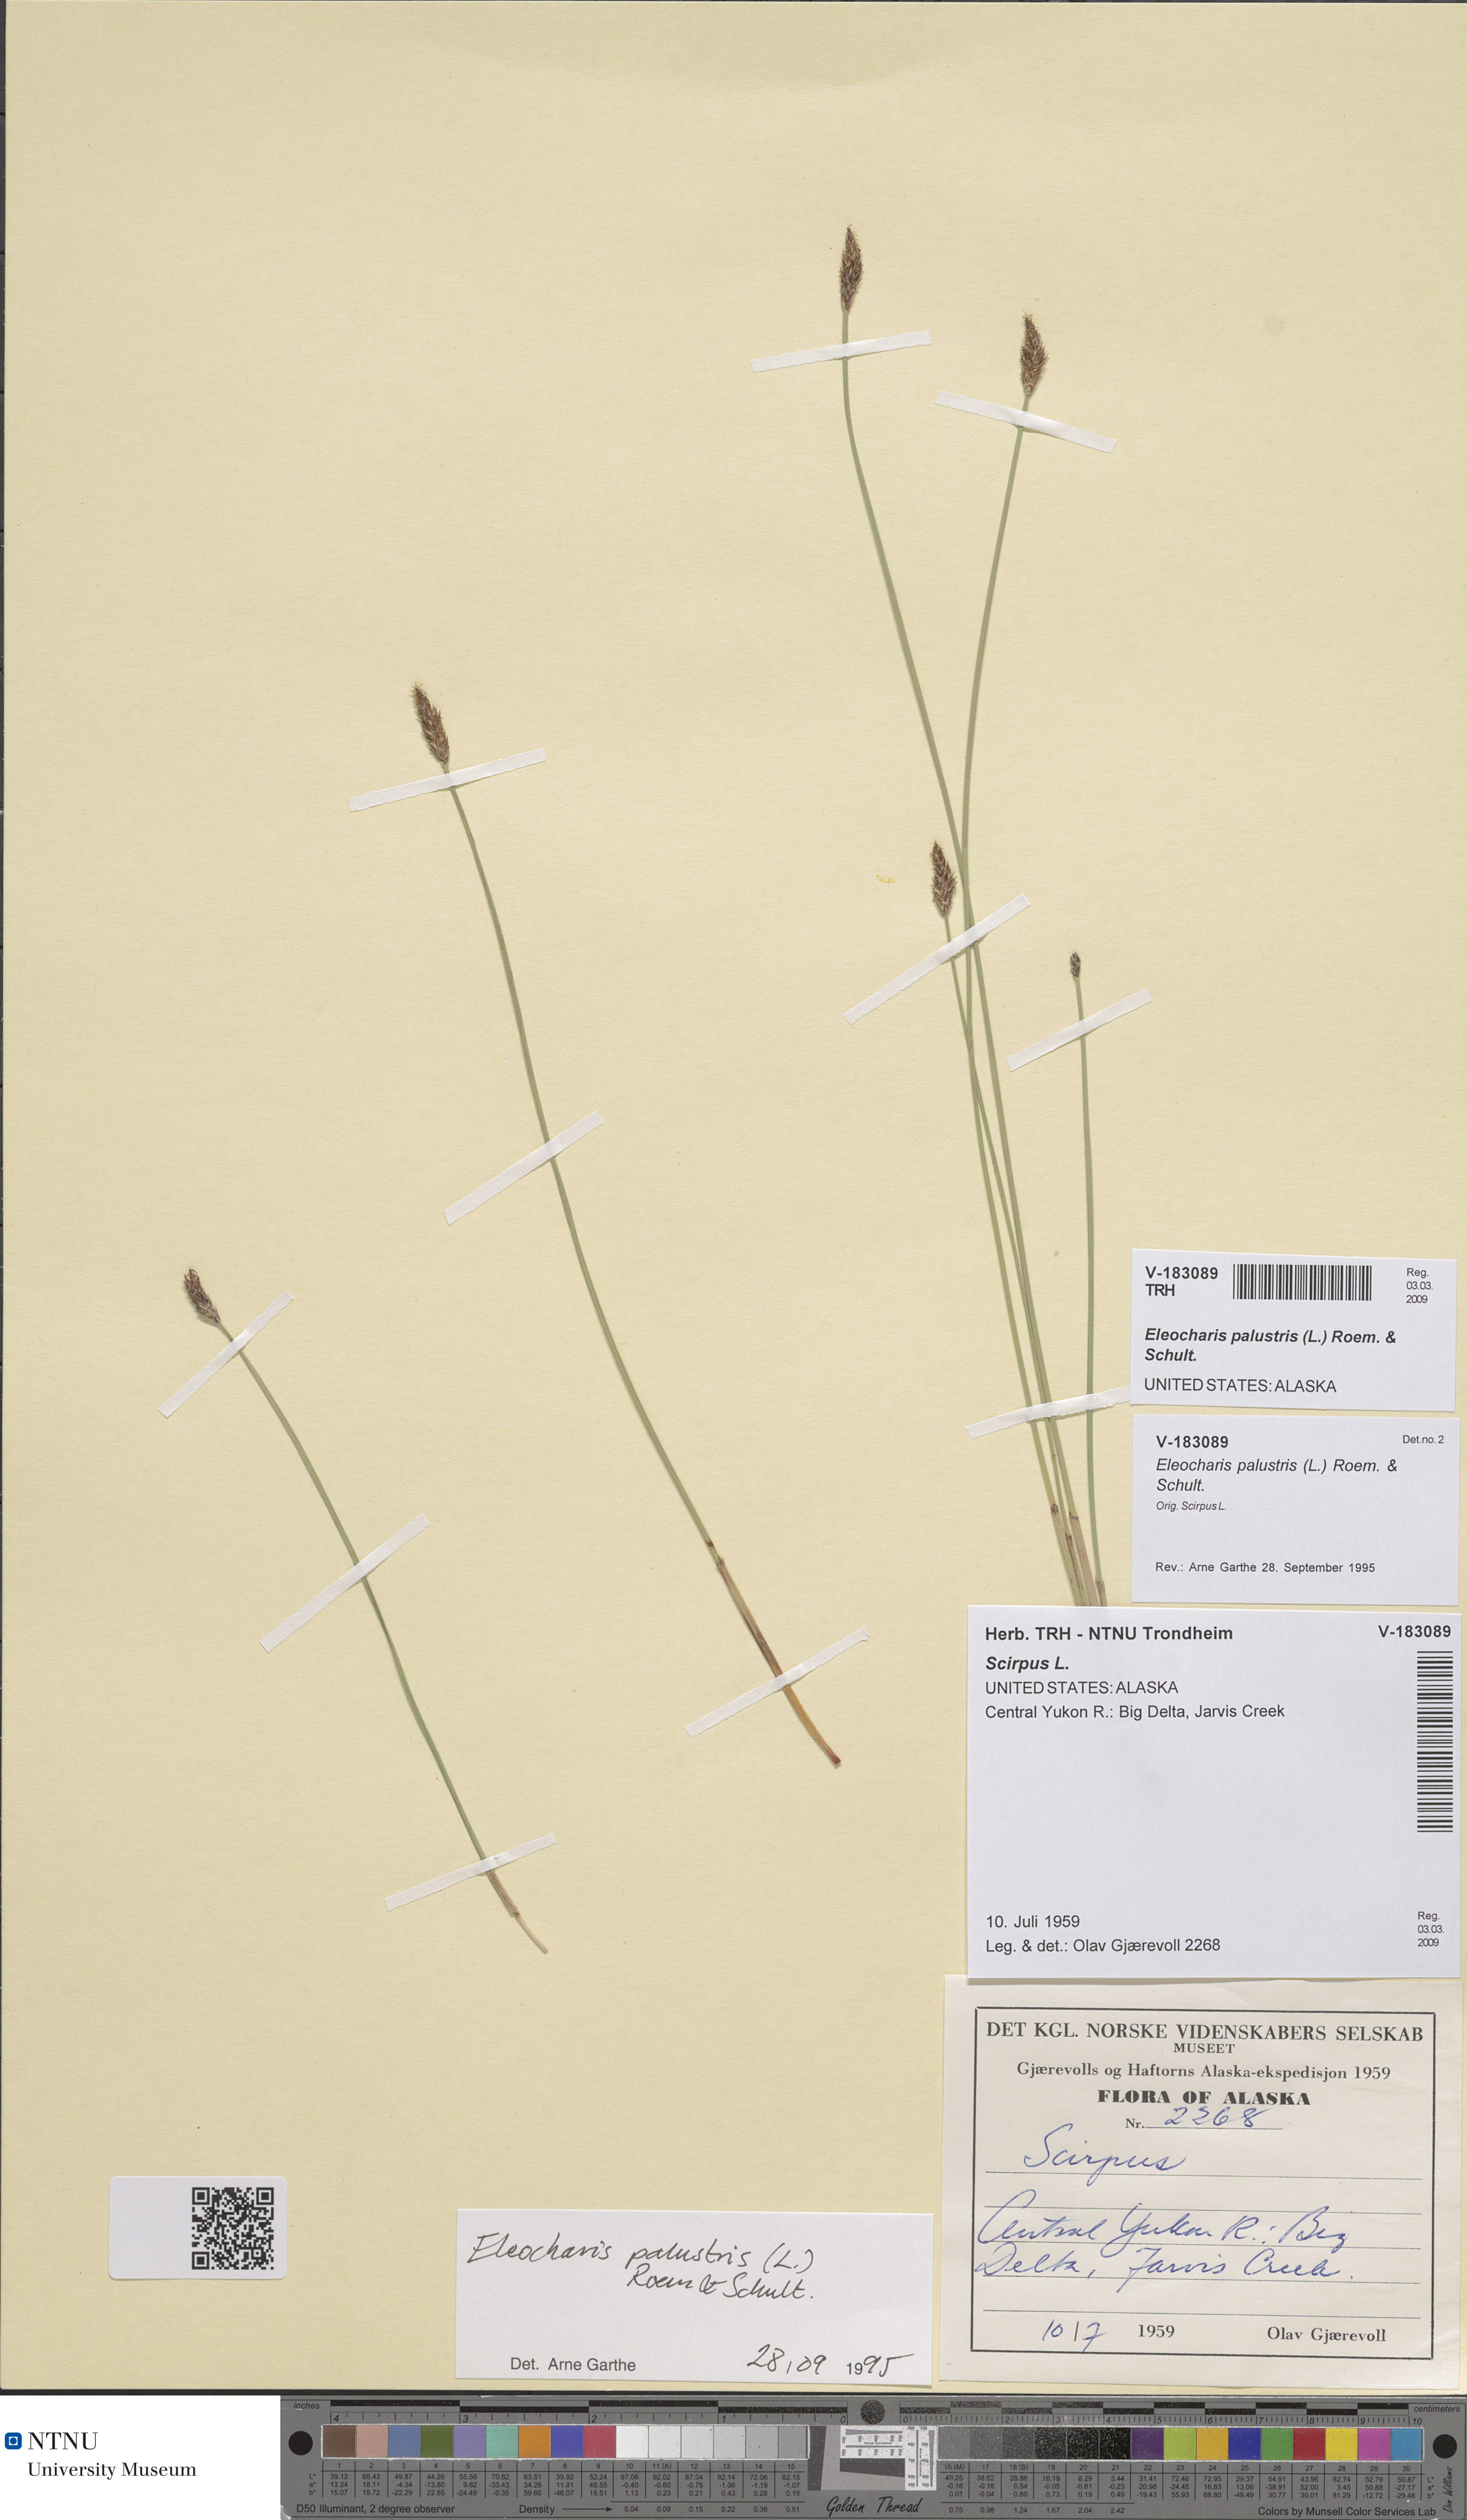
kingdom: Plantae
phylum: Tracheophyta
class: Liliopsida
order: Poales
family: Cyperaceae
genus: Eleocharis
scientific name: Eleocharis palustris
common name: Common spike-rush
